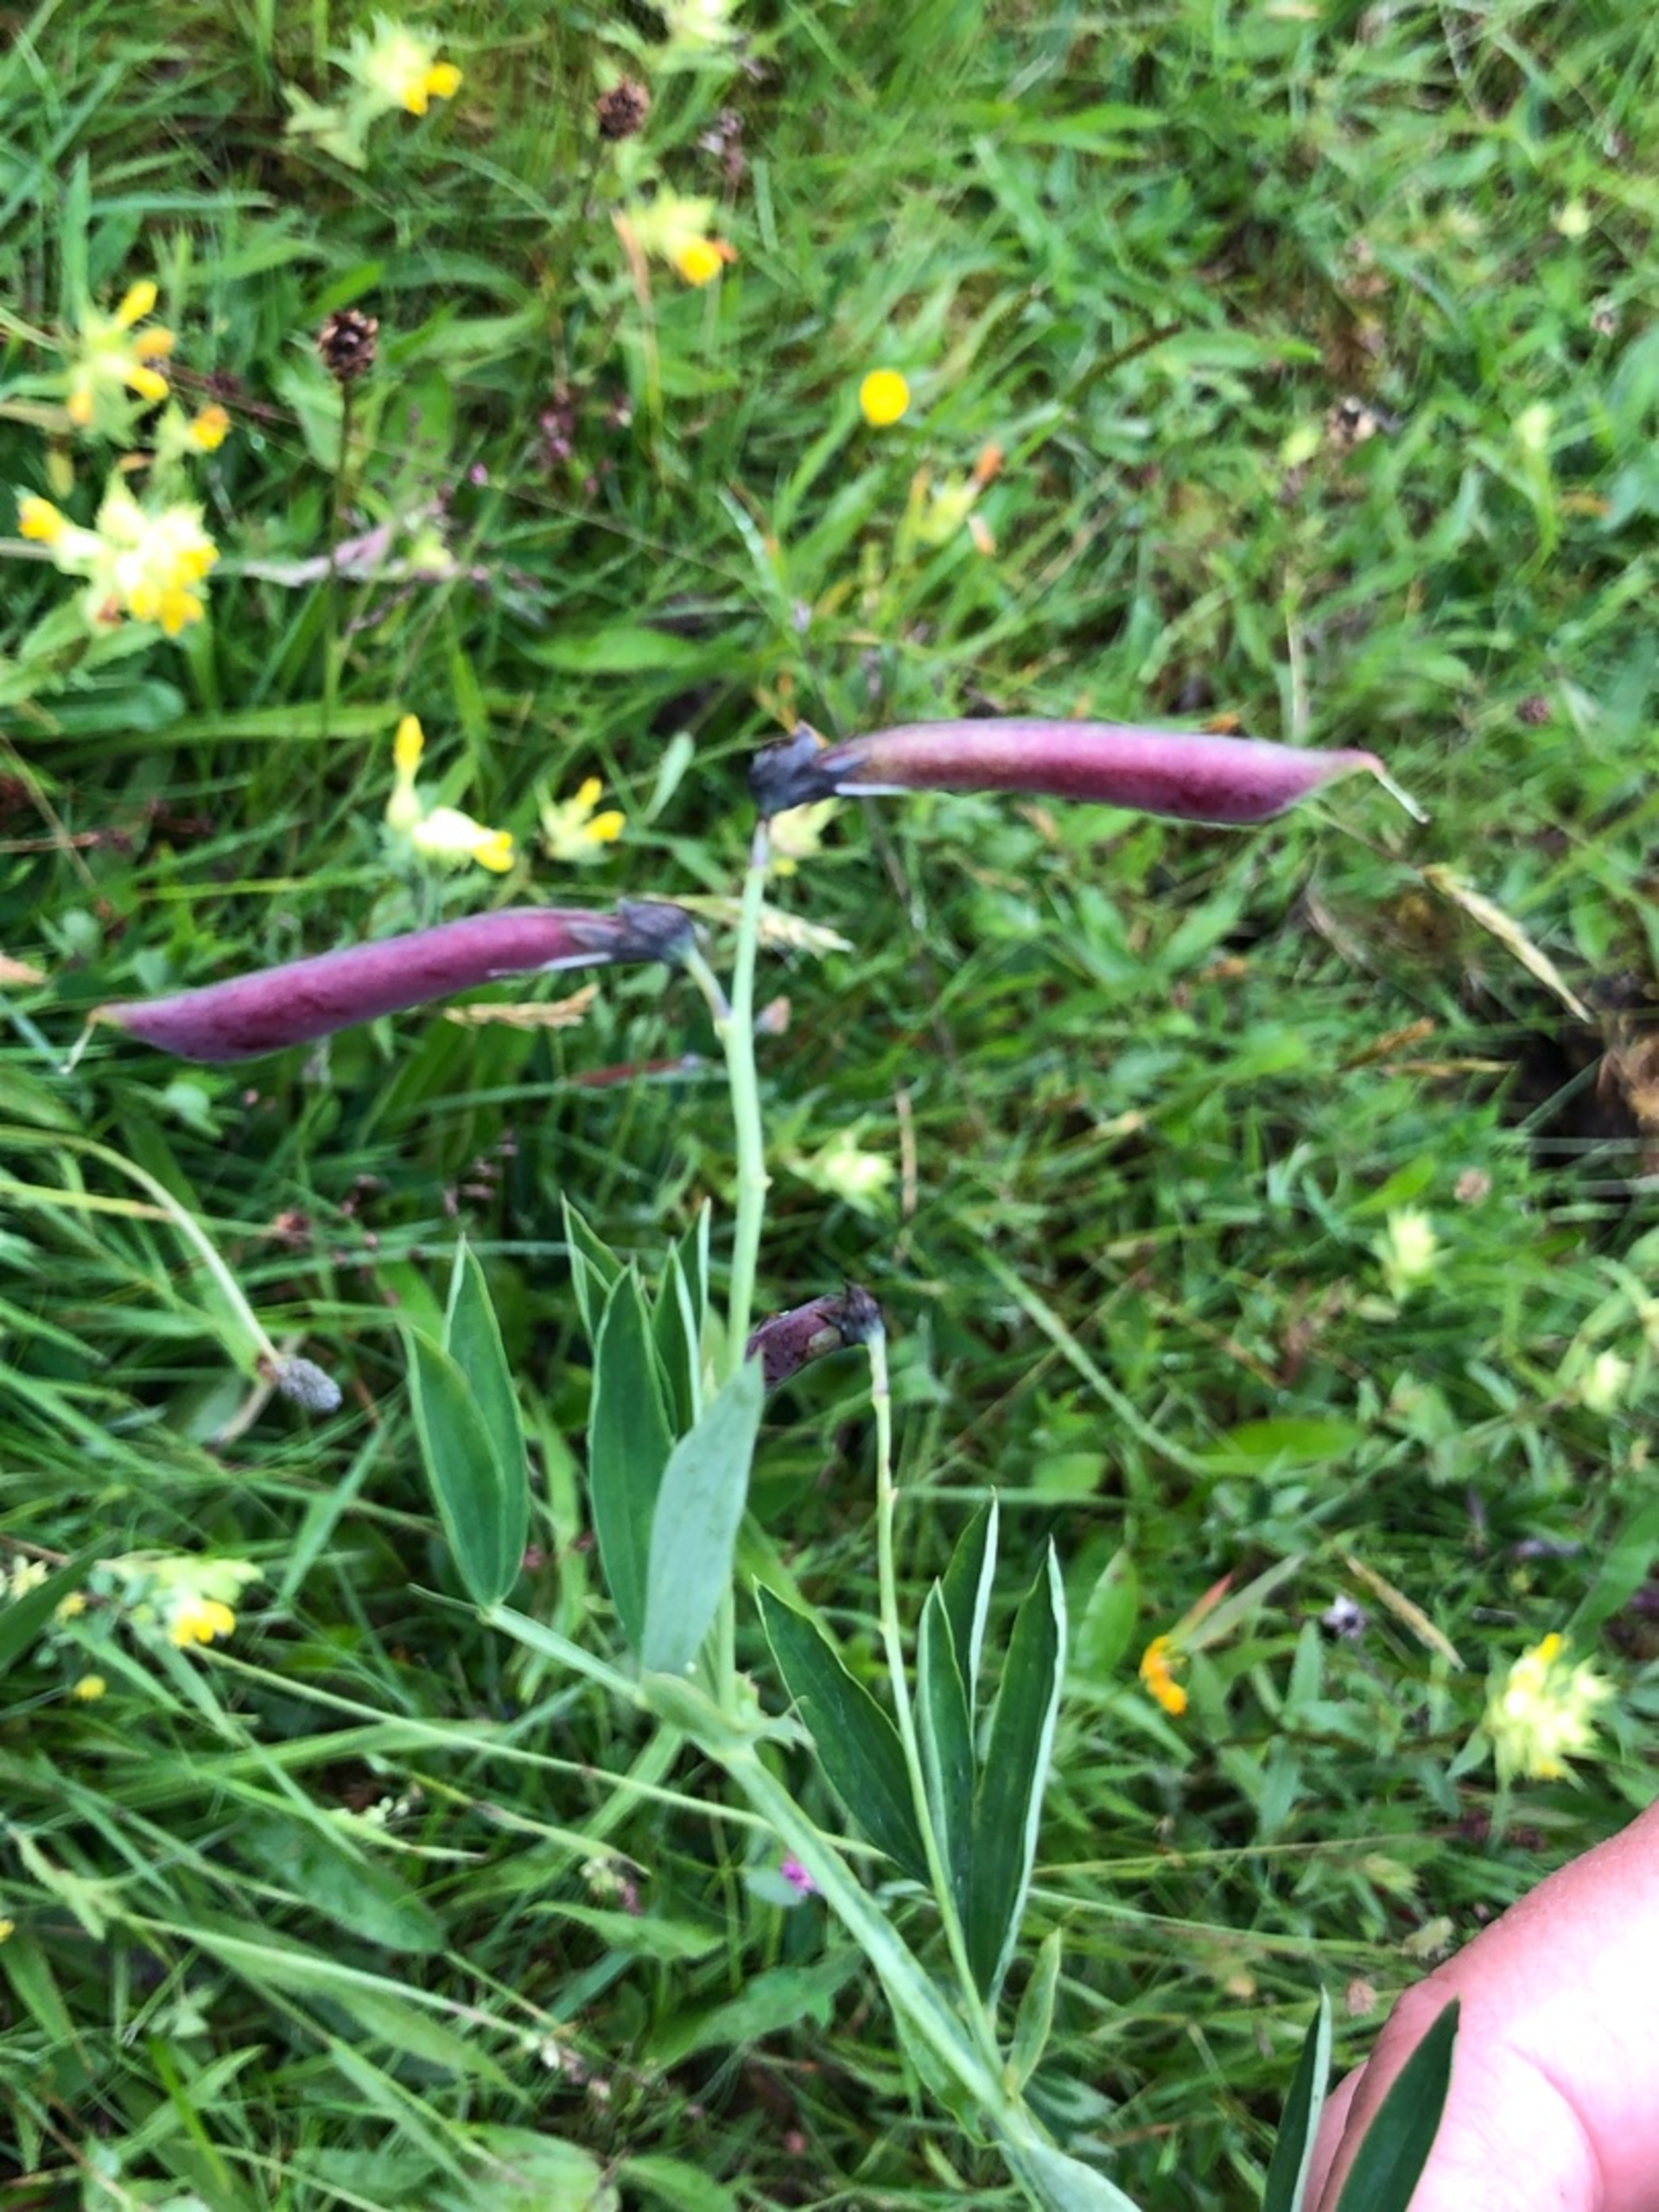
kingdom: Plantae
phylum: Tracheophyta
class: Magnoliopsida
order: Fabales
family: Fabaceae
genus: Lathyrus
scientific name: Lathyrus linifolius
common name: Krat-fladbælg
